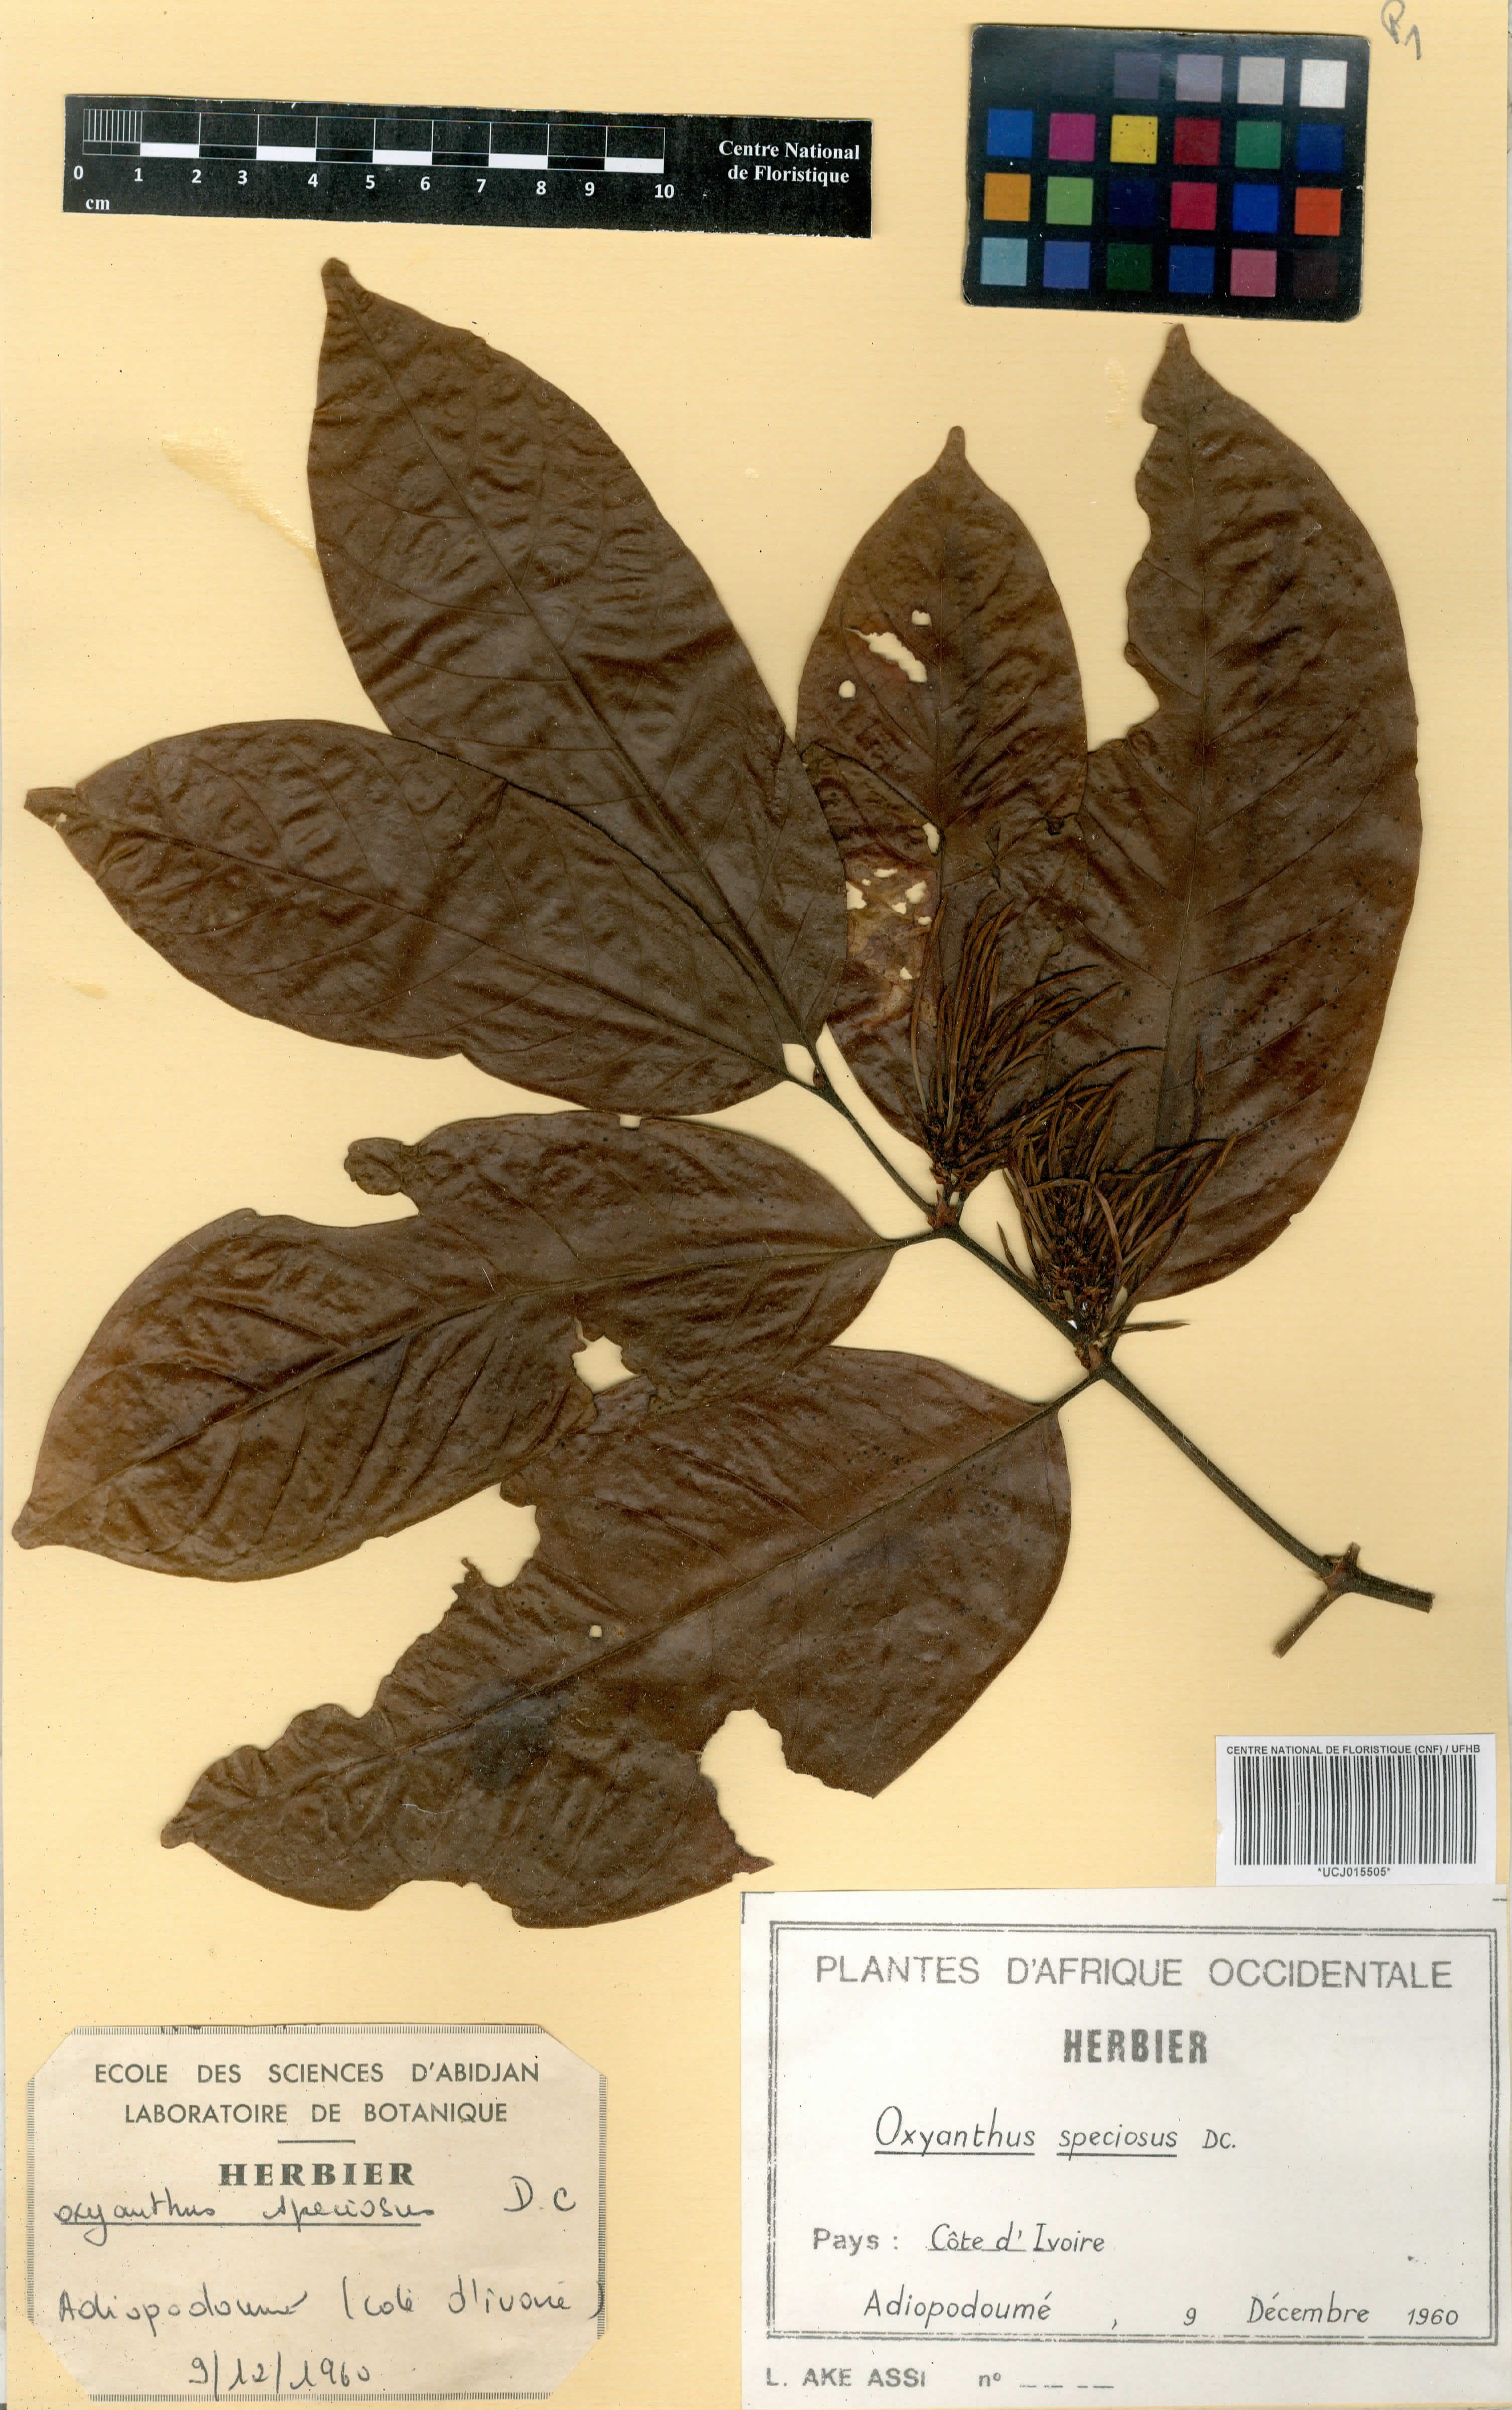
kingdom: Plantae
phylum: Tracheophyta
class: Magnoliopsida
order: Gentianales
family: Rubiaceae
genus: Oxyanthus
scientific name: Oxyanthus speciosus
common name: Whipstick loquat
